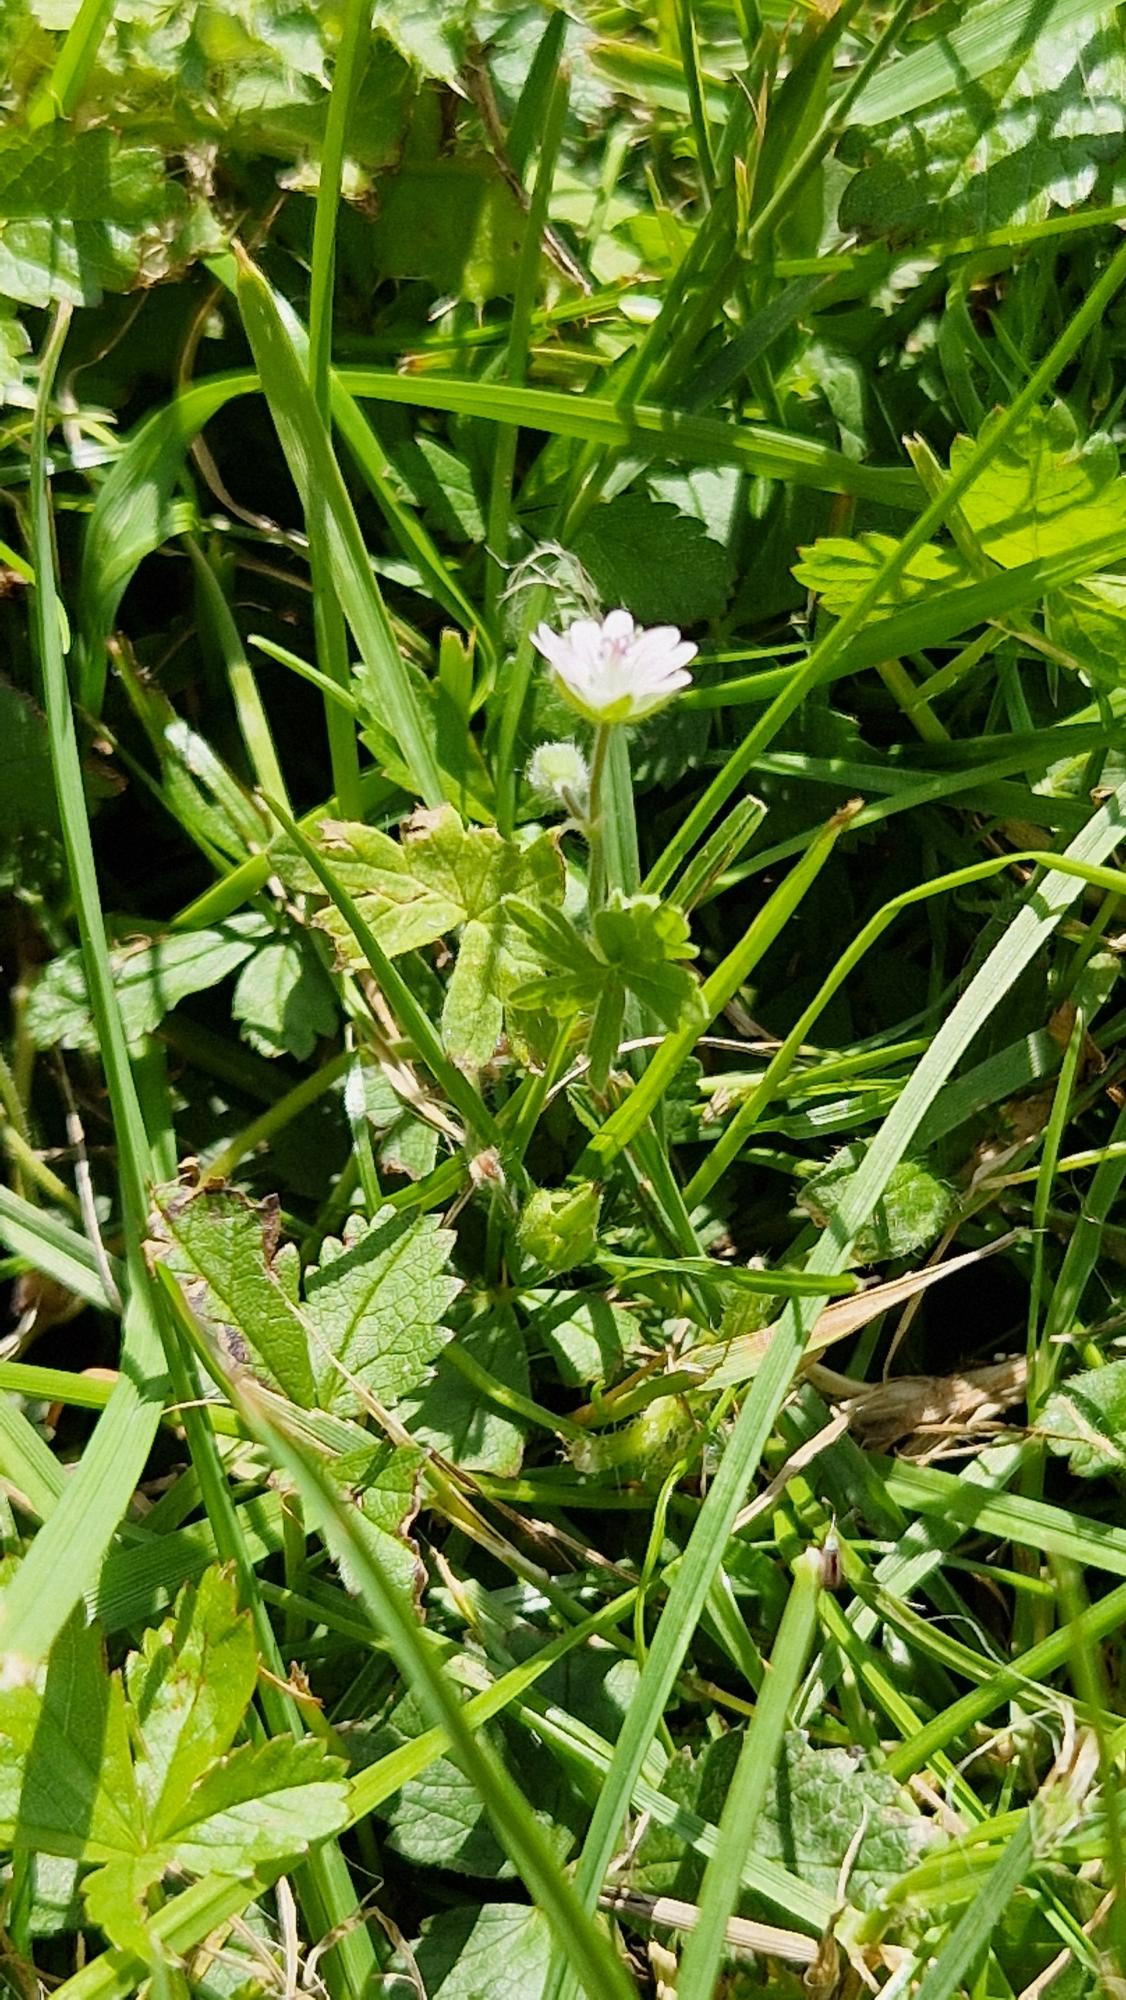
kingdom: Plantae
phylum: Tracheophyta
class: Magnoliopsida
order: Geraniales
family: Geraniaceae
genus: Geranium
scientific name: Geranium molle
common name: Blød storkenæb
